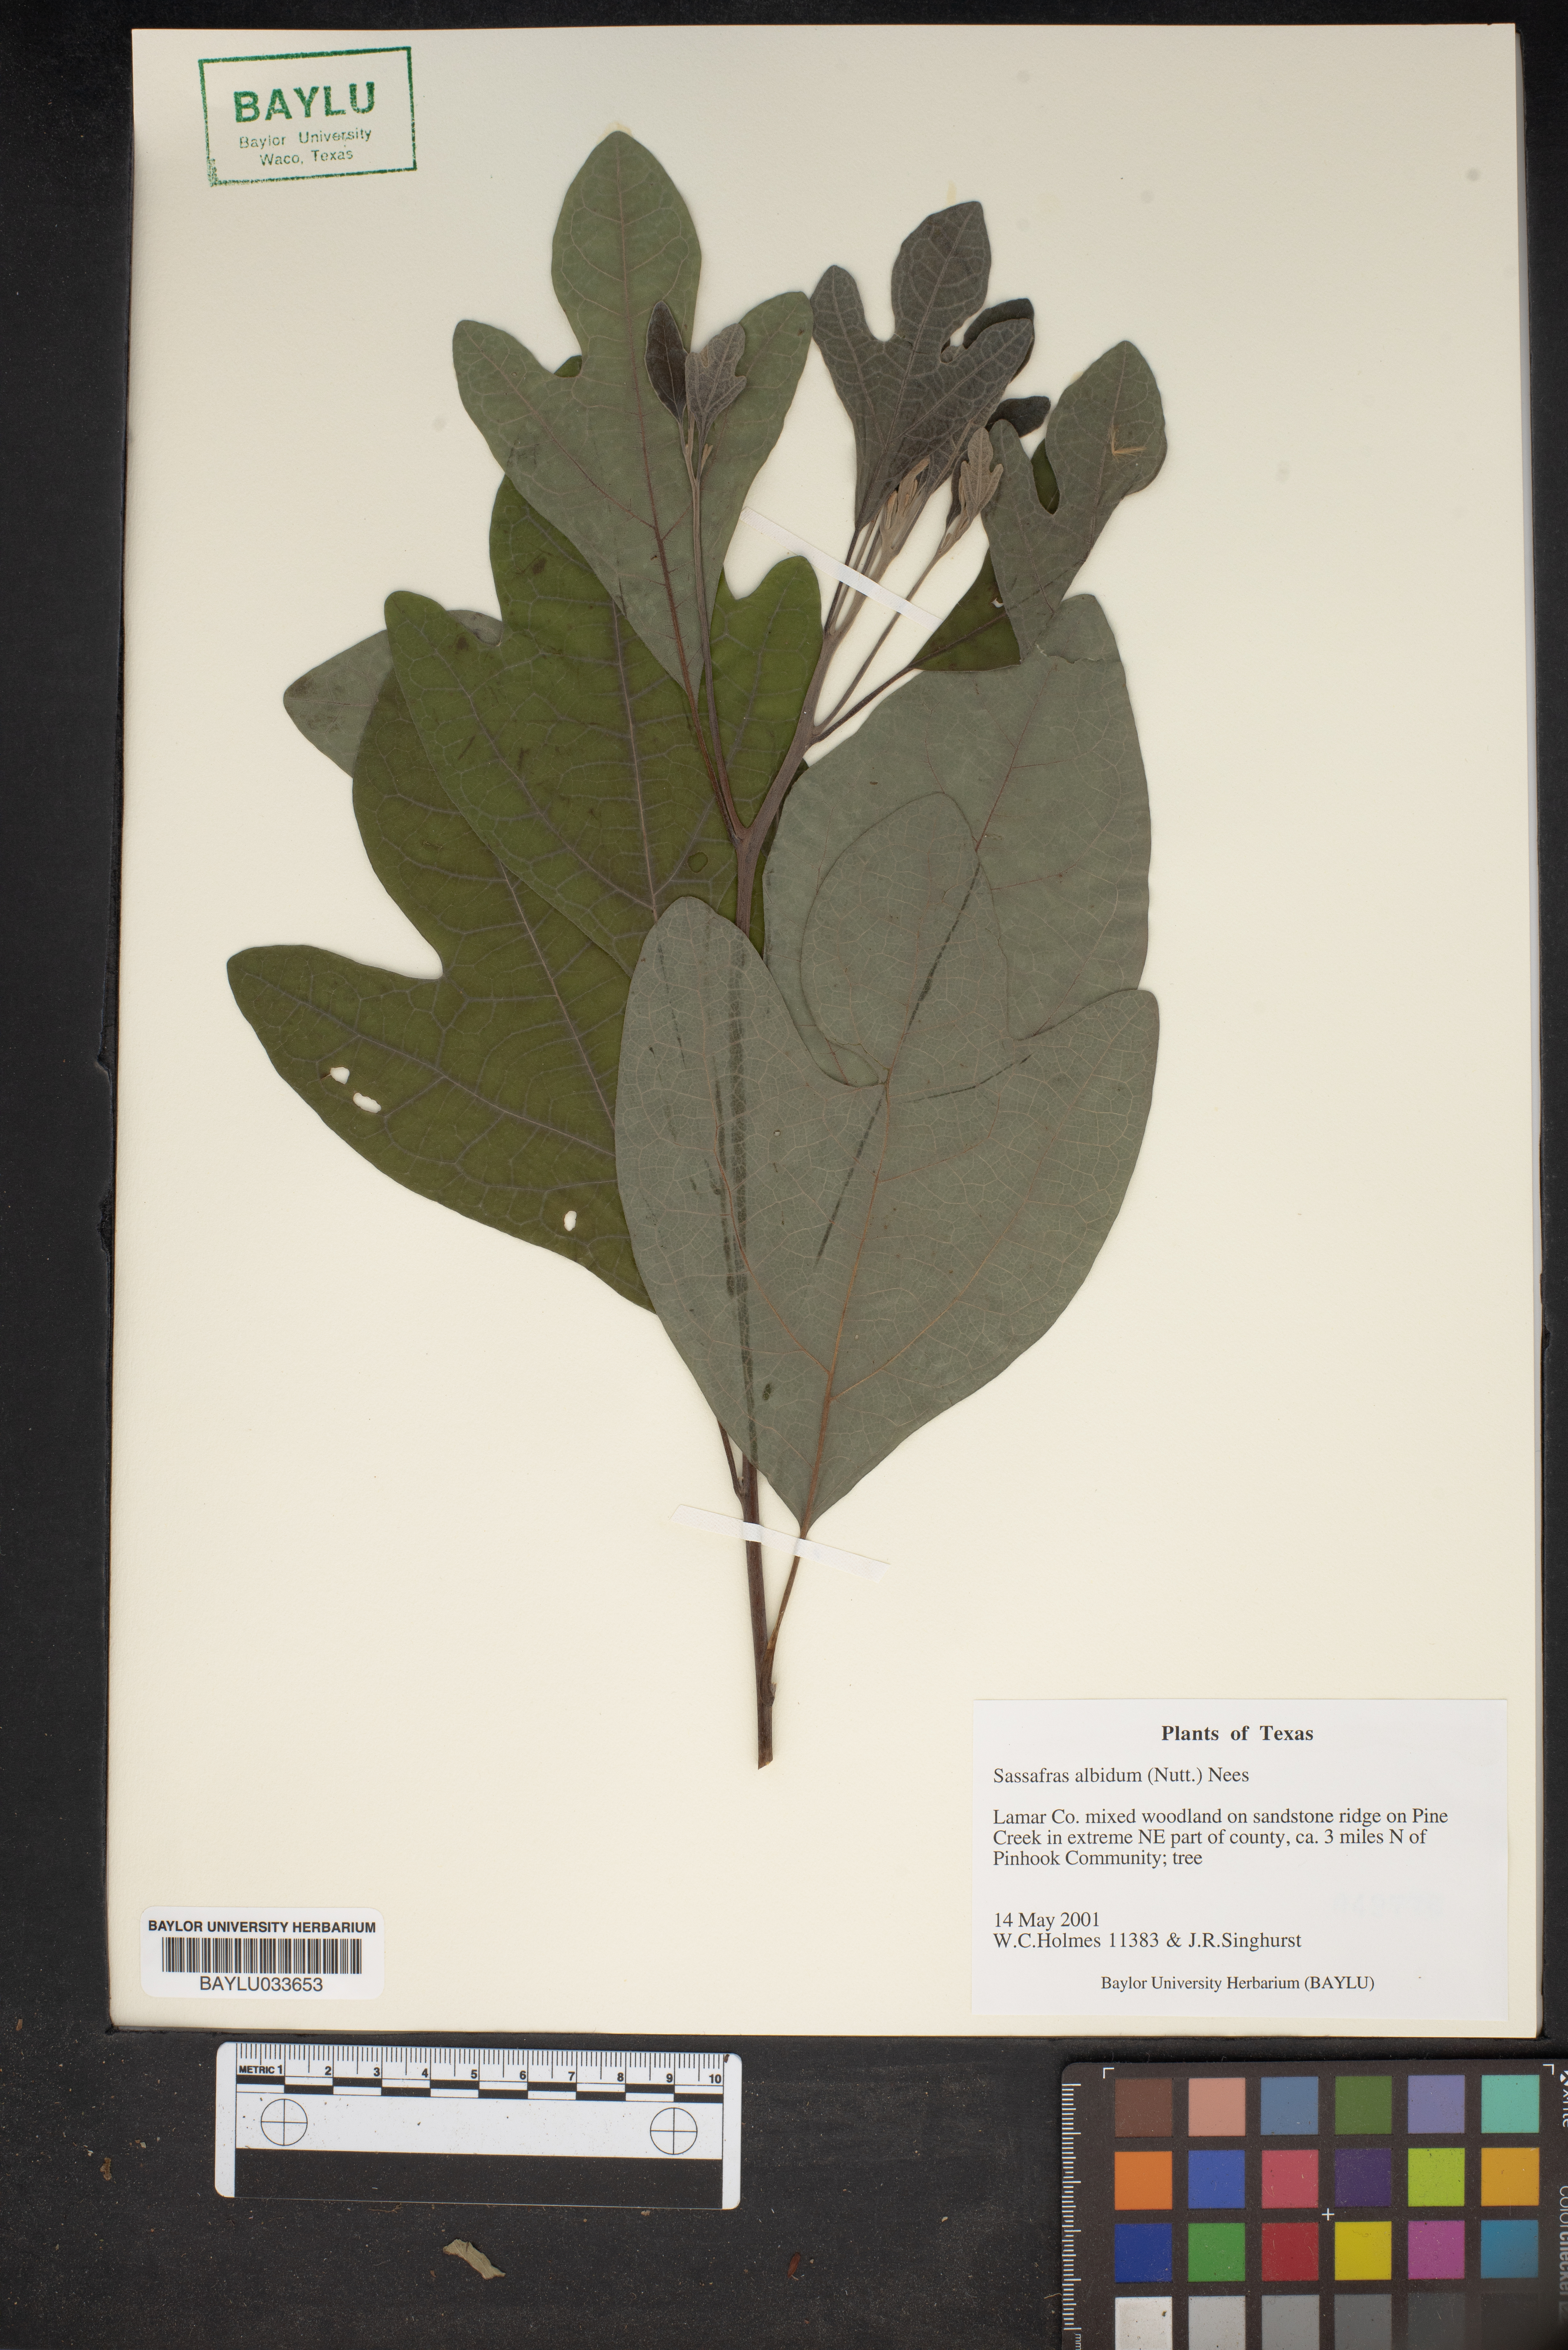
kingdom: Plantae
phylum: Tracheophyta
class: Magnoliopsida
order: Laurales
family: Lauraceae
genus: Sassafras
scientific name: Sassafras albidum
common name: Sassafras
